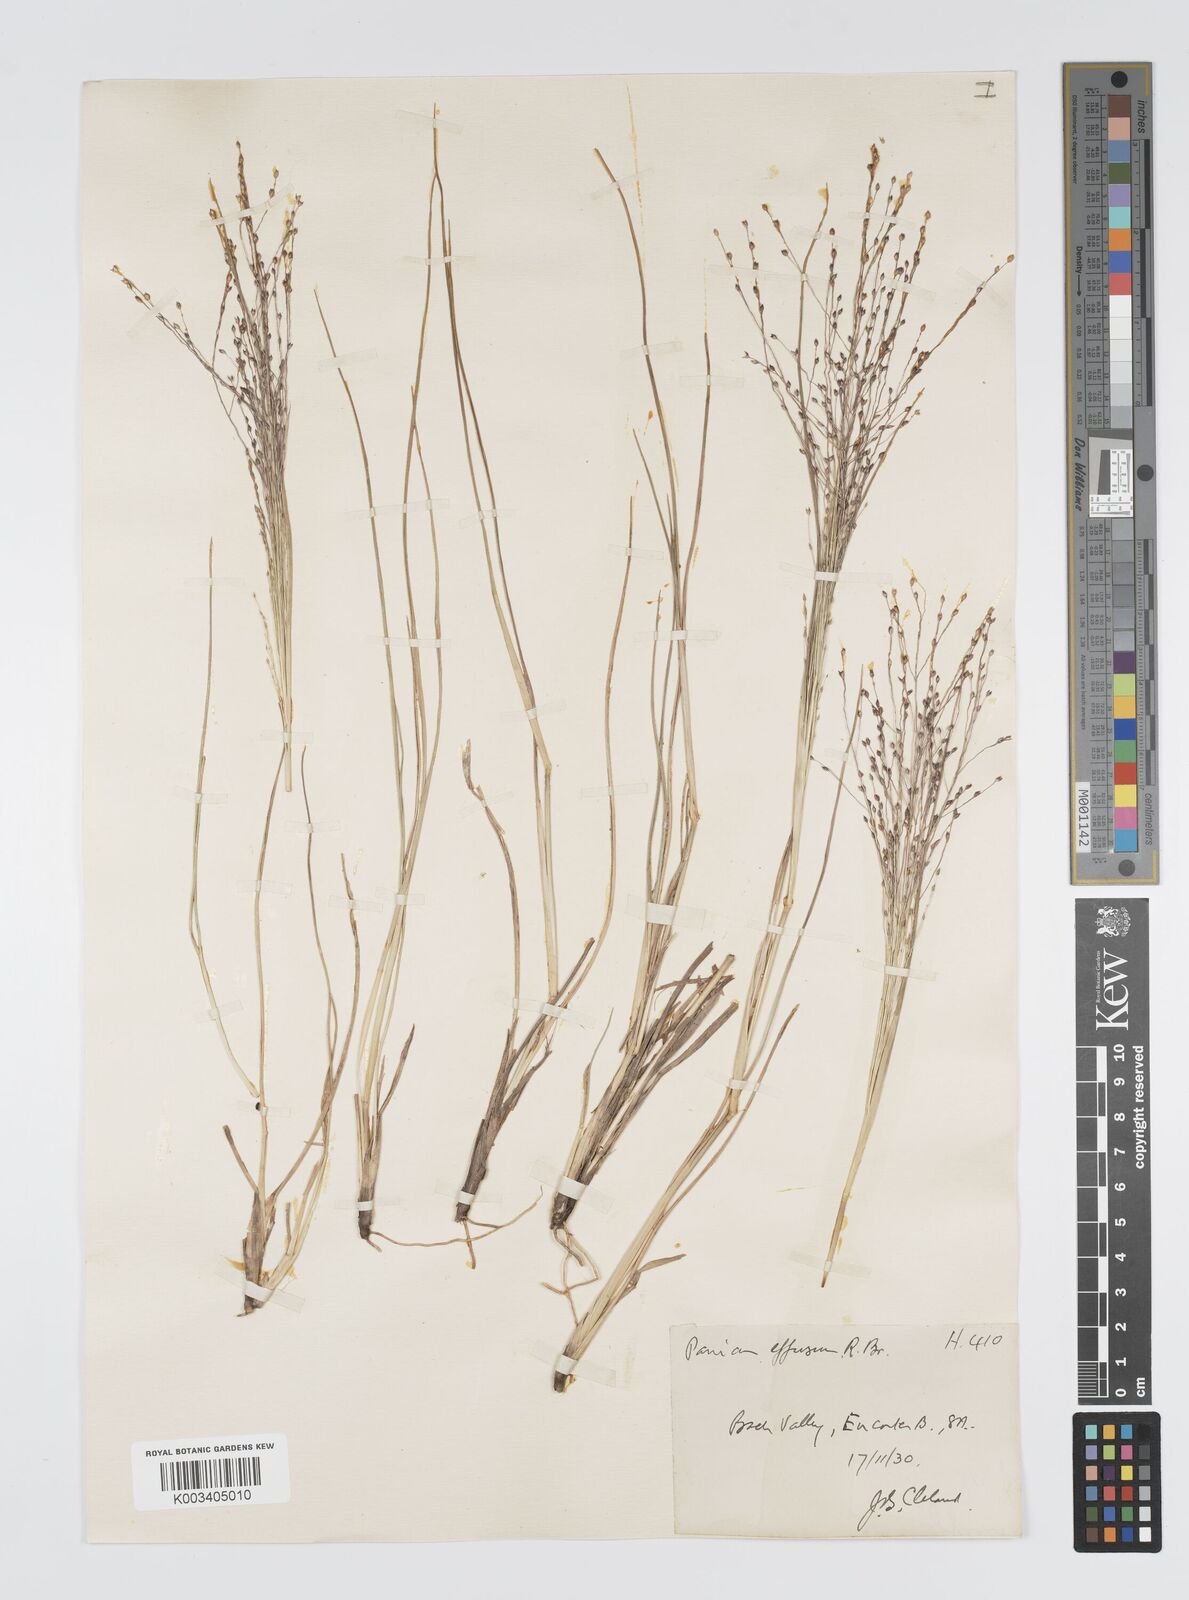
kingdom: Plantae
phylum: Tracheophyta
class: Liliopsida
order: Poales
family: Poaceae
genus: Panicum
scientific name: Panicum effusum
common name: Hairy panic grass
